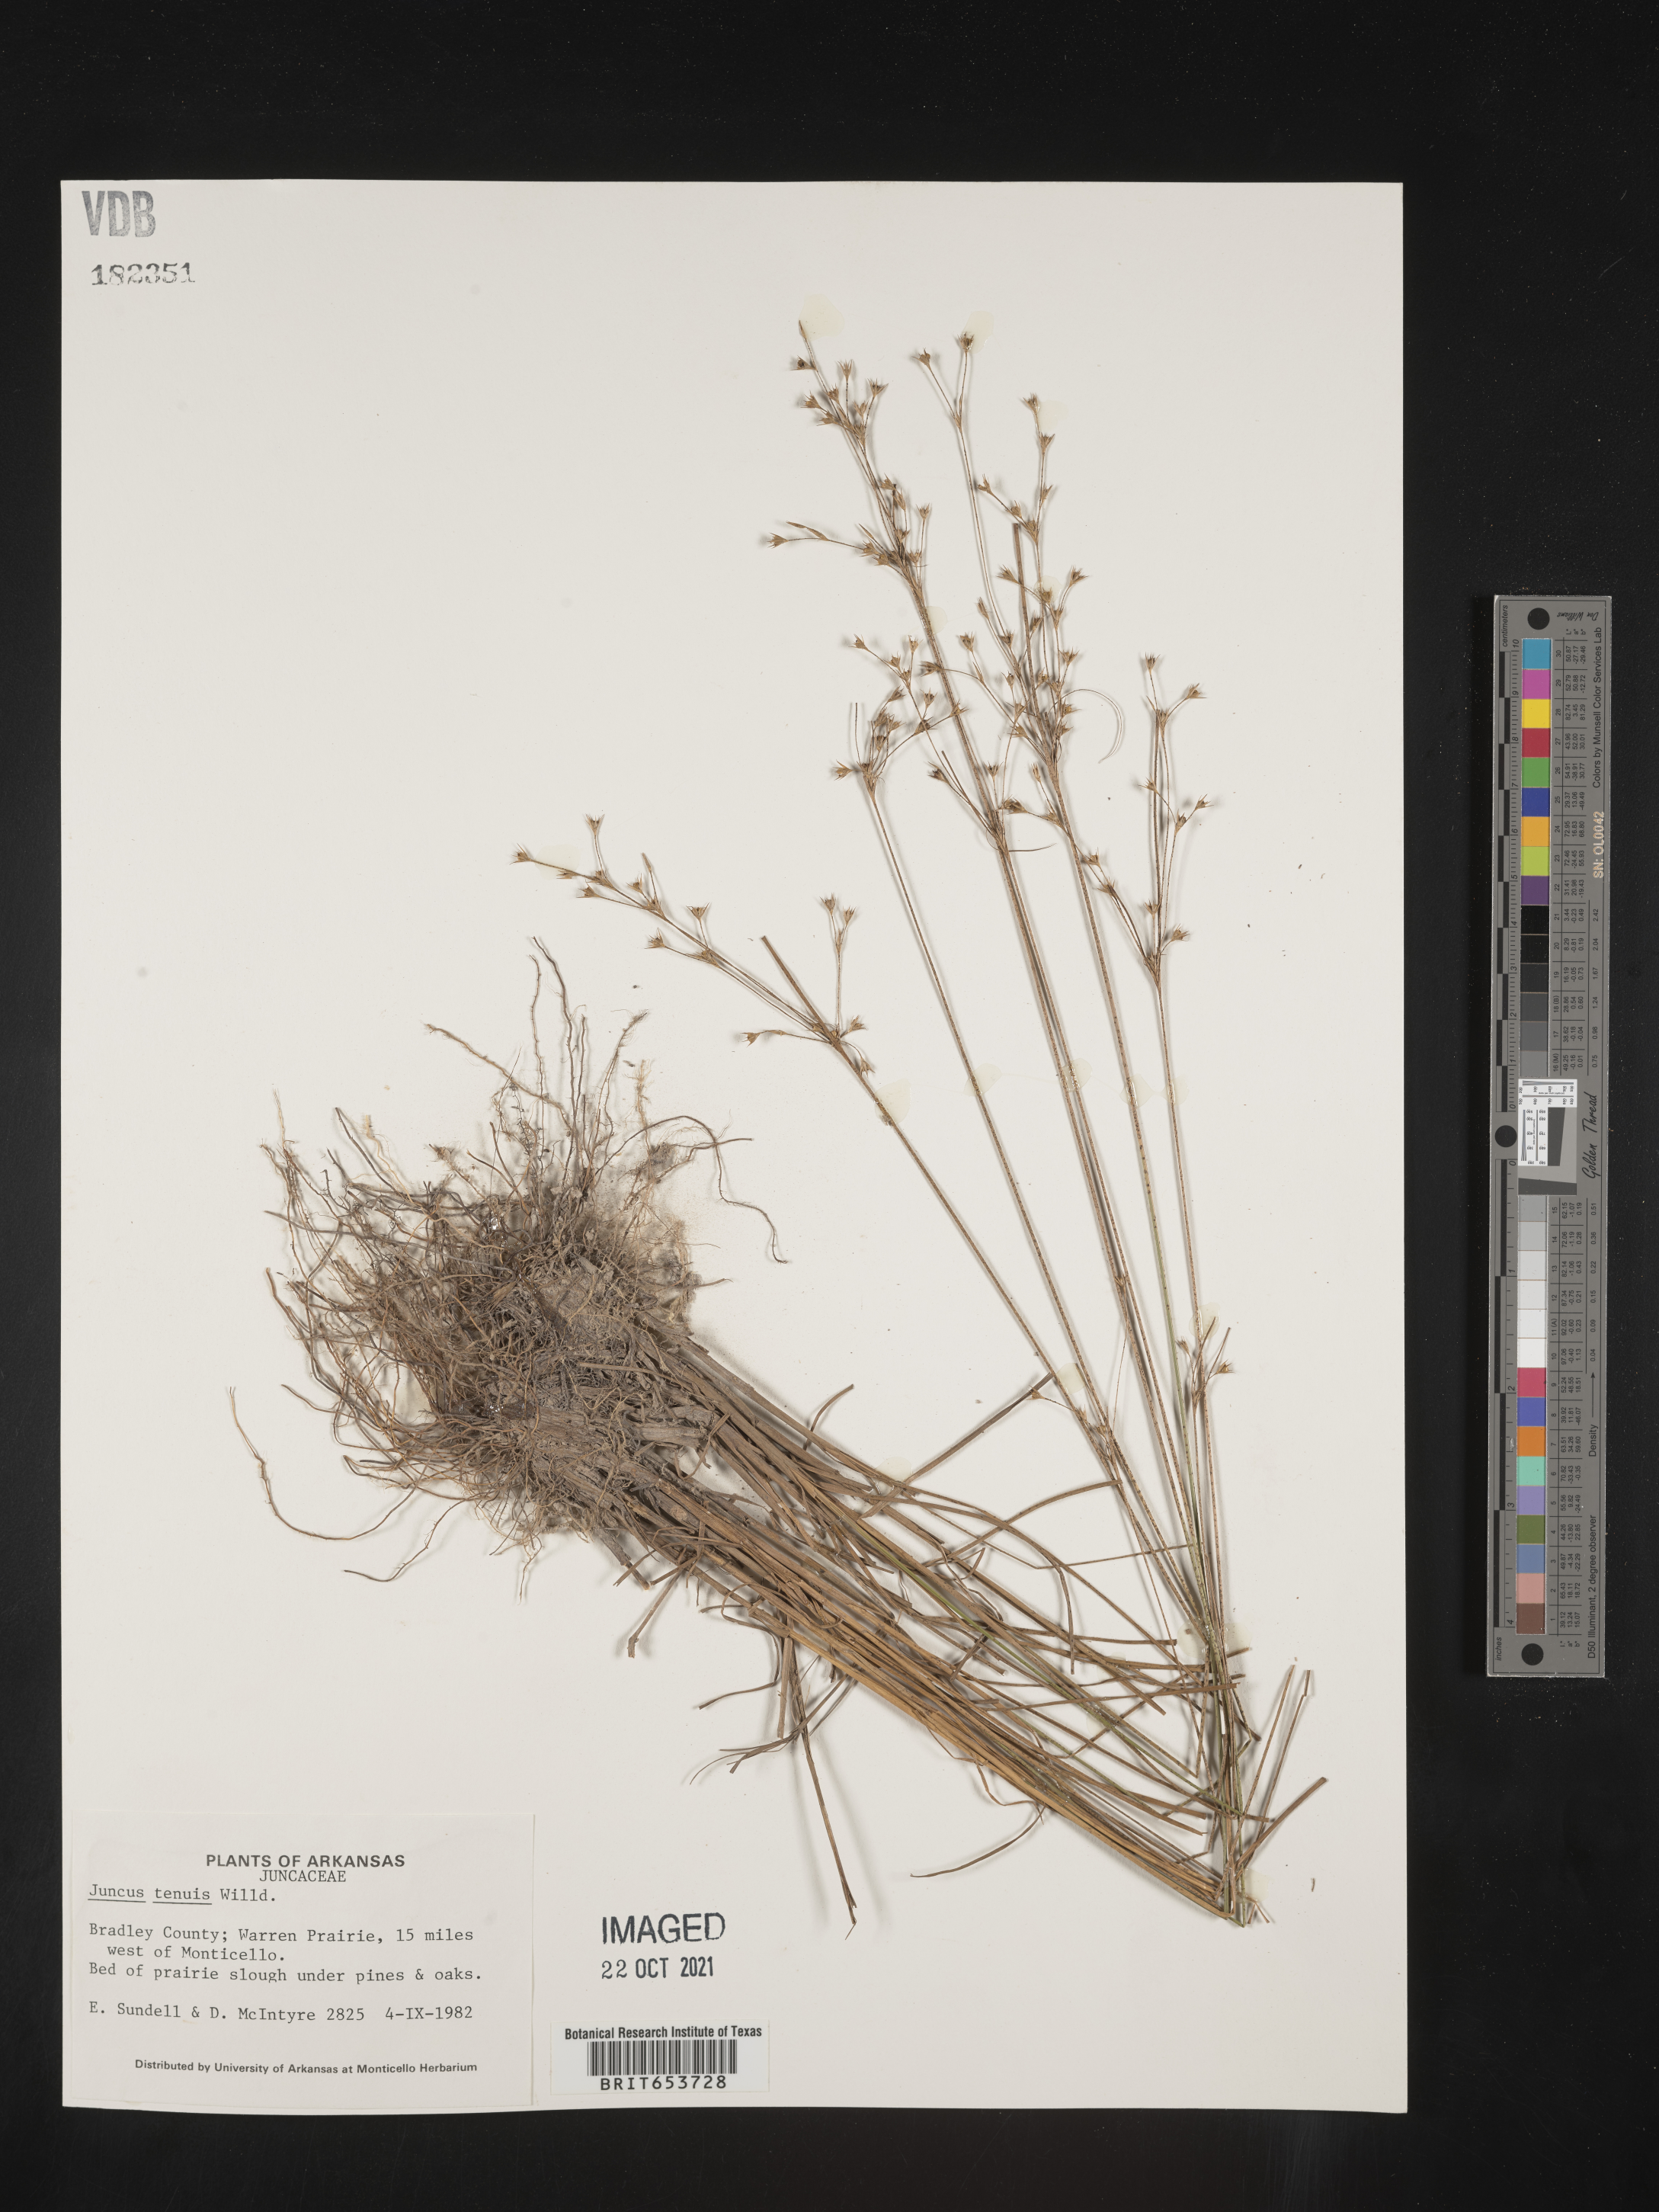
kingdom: Plantae
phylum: Tracheophyta
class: Liliopsida
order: Poales
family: Juncaceae
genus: Juncus
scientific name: Juncus tenuis
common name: Slender rush
